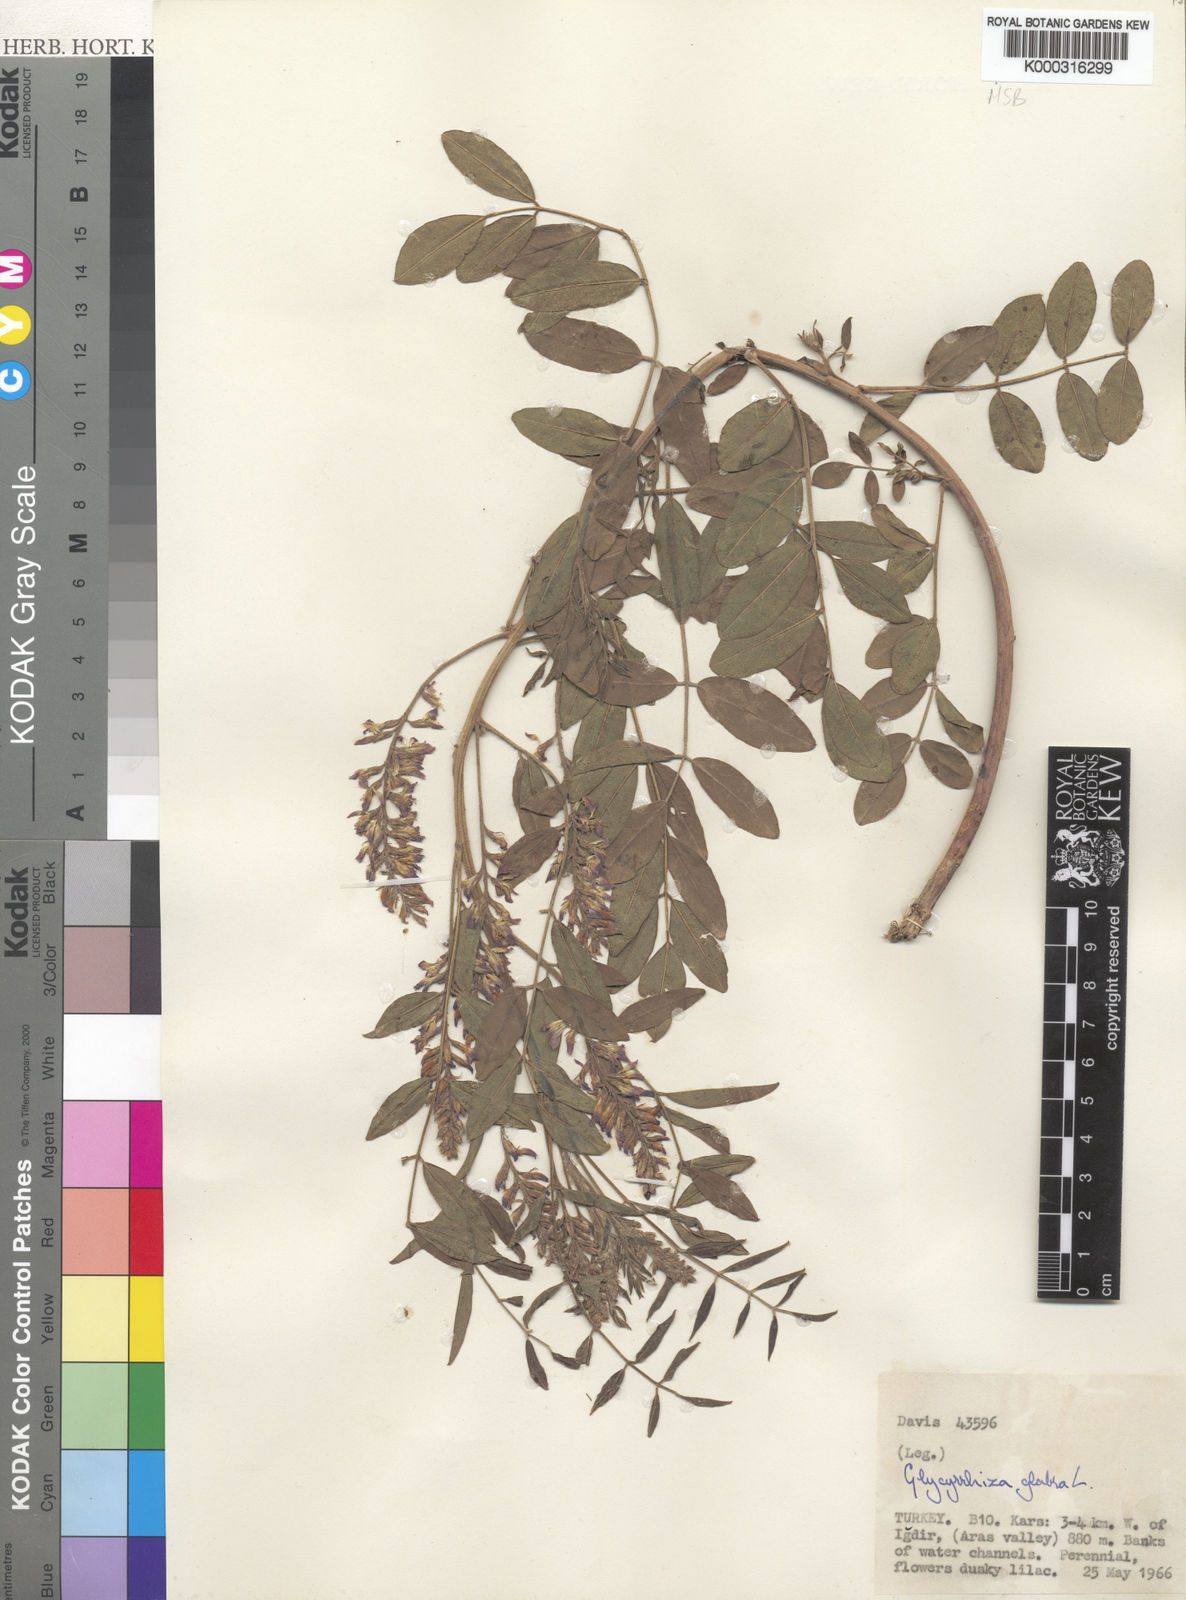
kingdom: Plantae
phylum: Tracheophyta
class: Magnoliopsida
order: Fabales
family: Fabaceae
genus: Glycyrrhiza
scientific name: Glycyrrhiza glabra
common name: Liquorice
